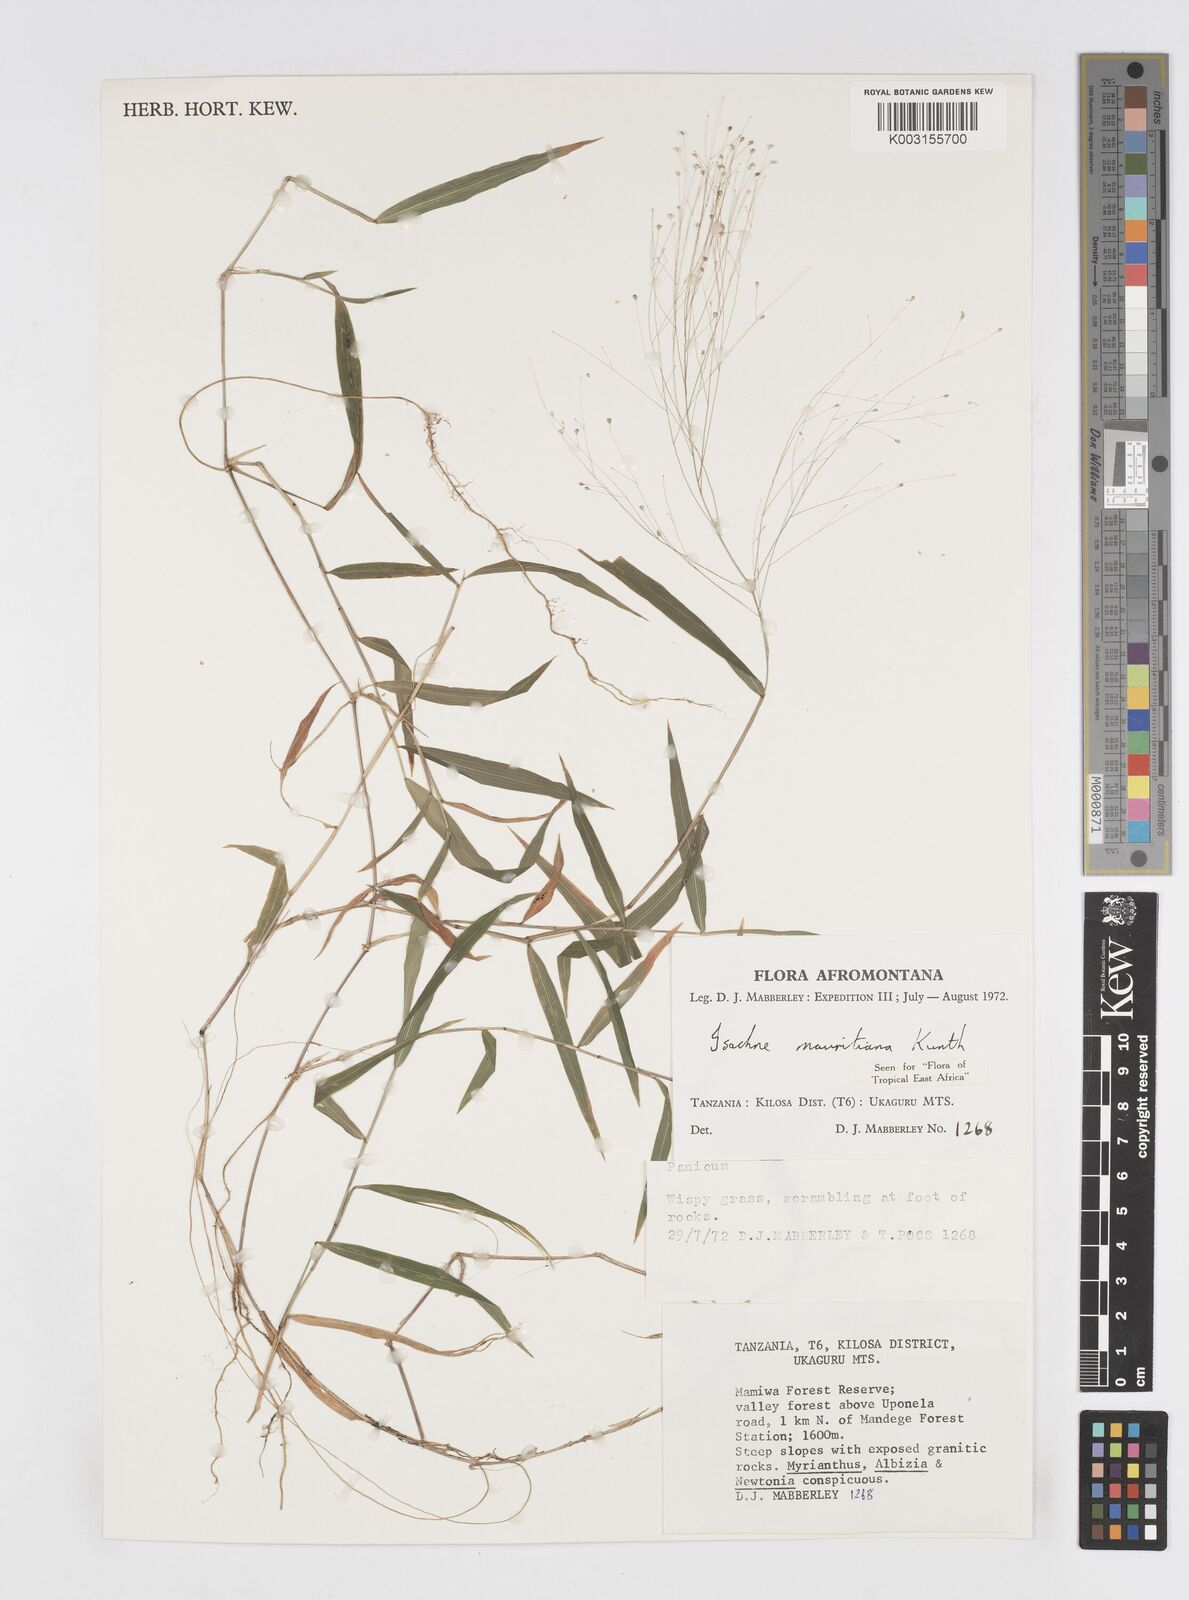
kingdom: Plantae
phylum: Tracheophyta
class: Liliopsida
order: Poales
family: Poaceae
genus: Isachne
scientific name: Isachne mauritiana
